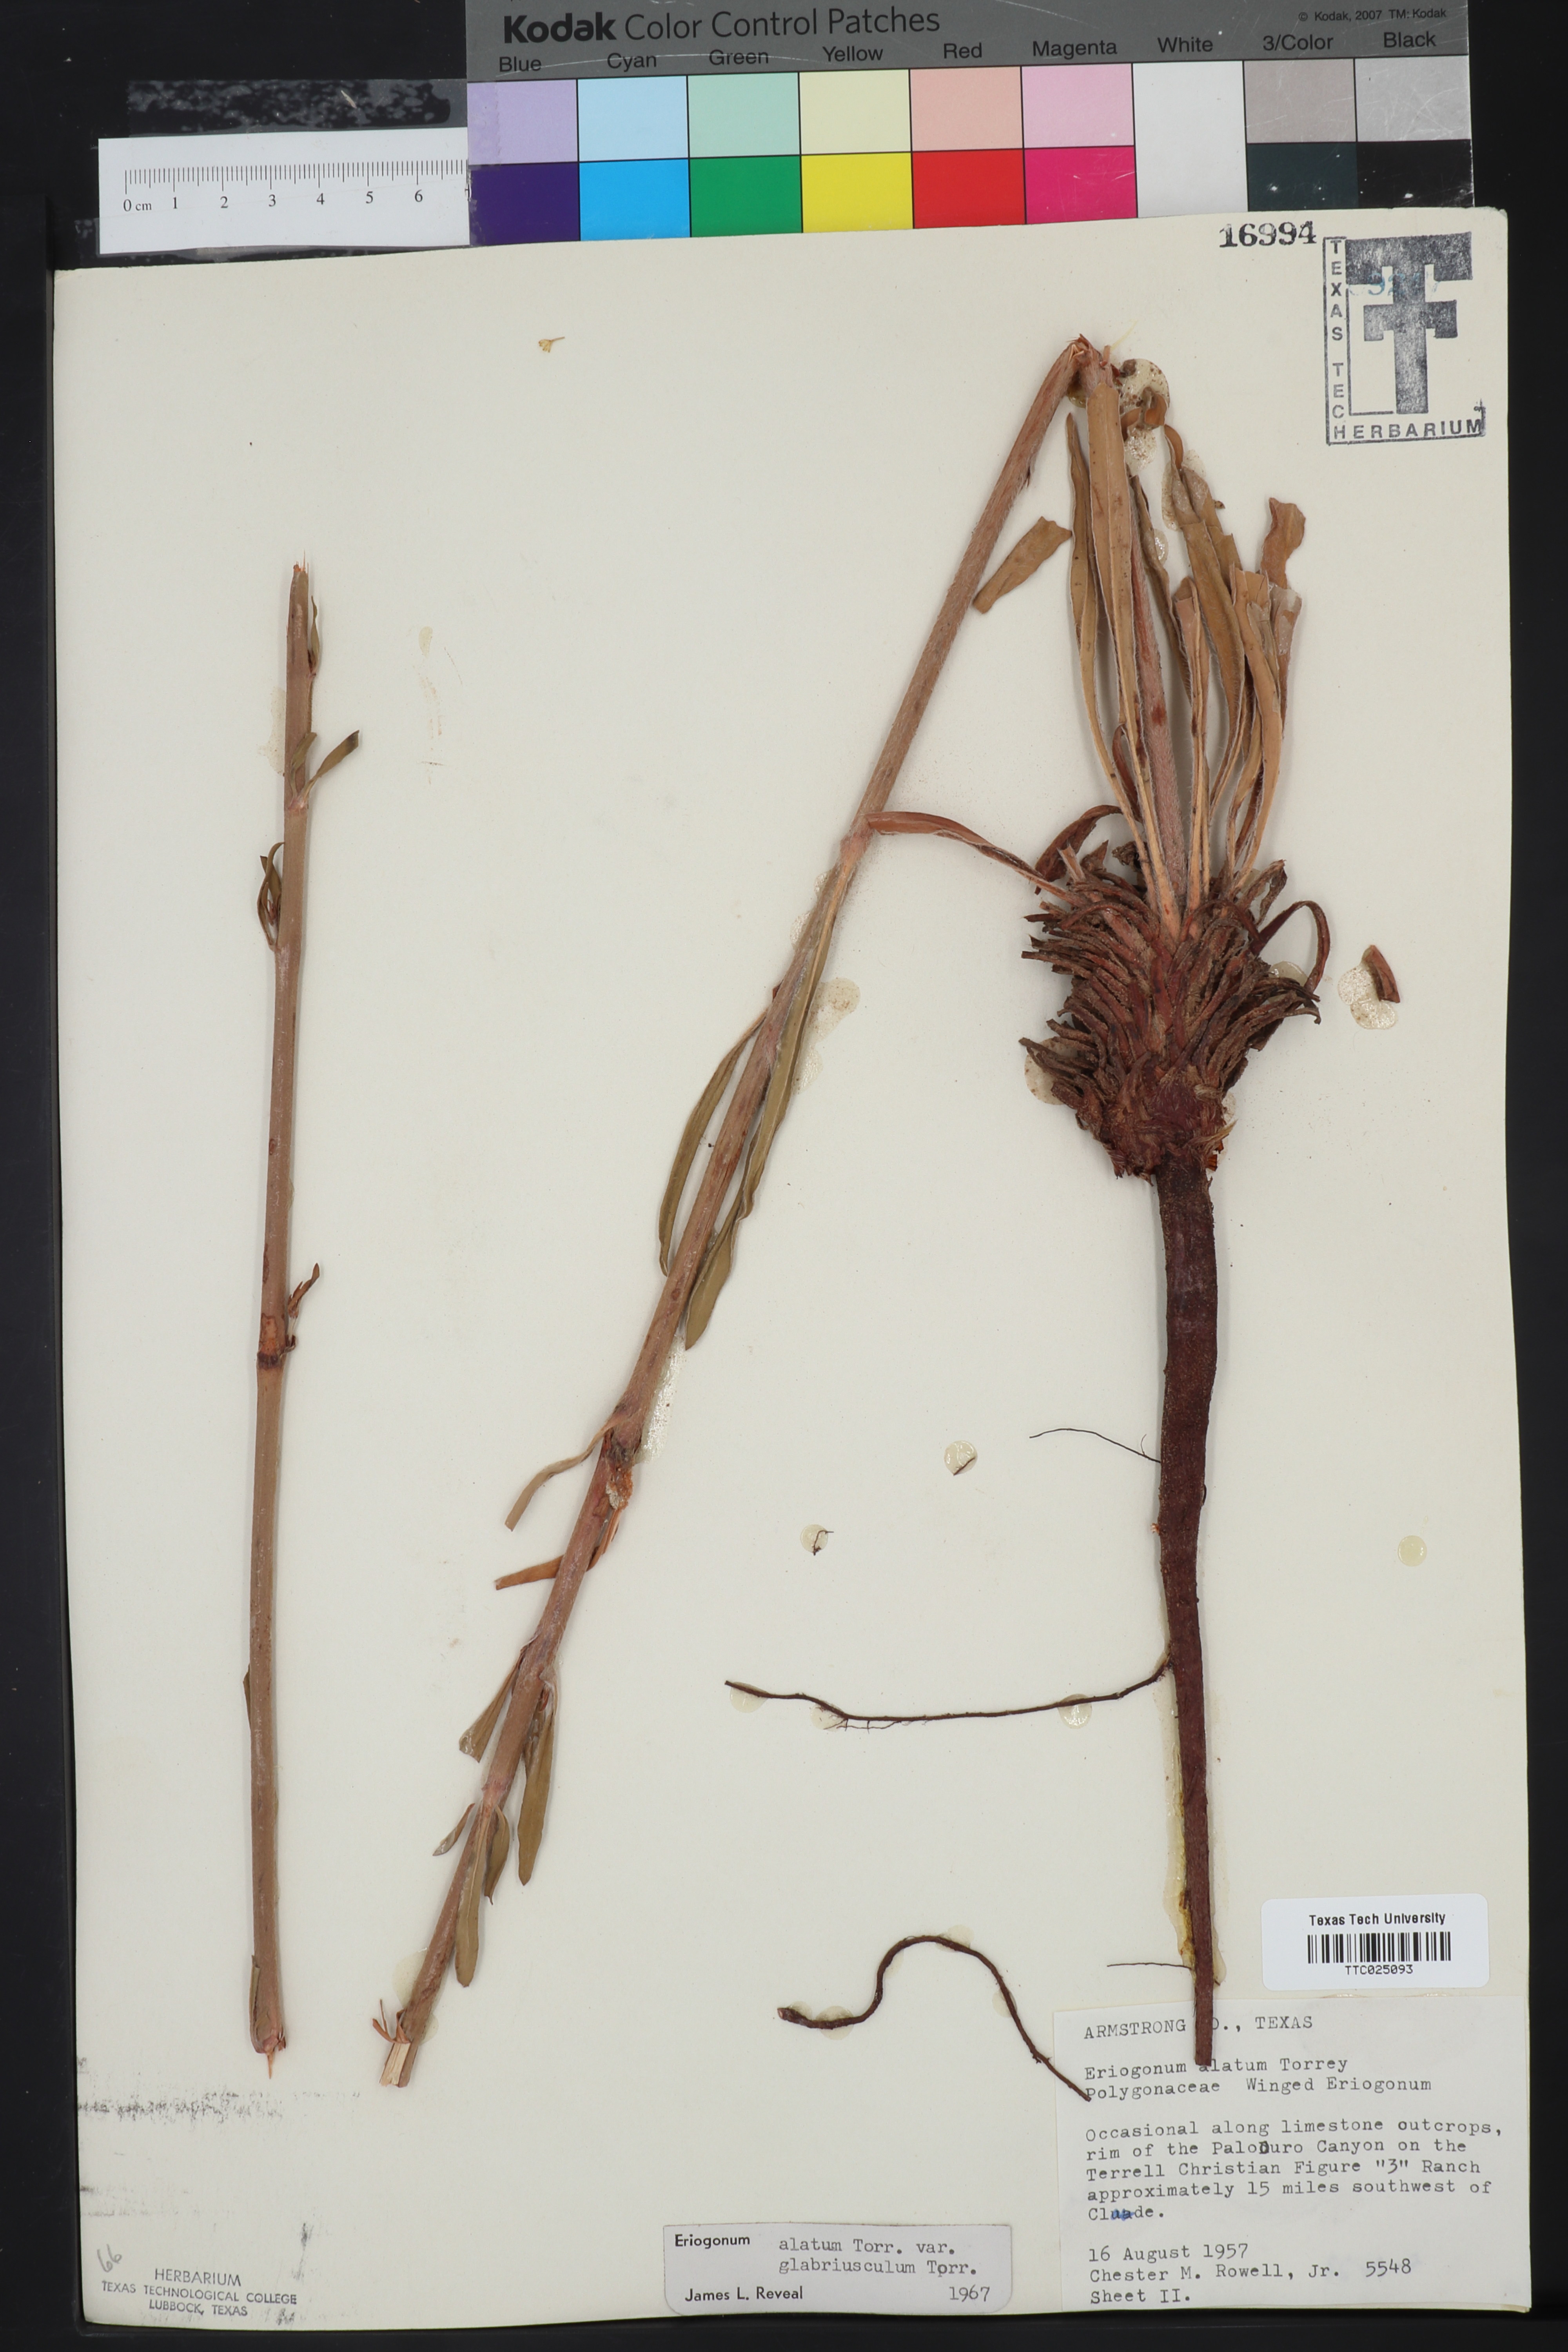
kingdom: Plantae
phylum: Tracheophyta
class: Magnoliopsida
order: Caryophyllales
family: Polygonaceae
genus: Eriogonum
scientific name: Eriogonum alatum
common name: Winged eriogonum
